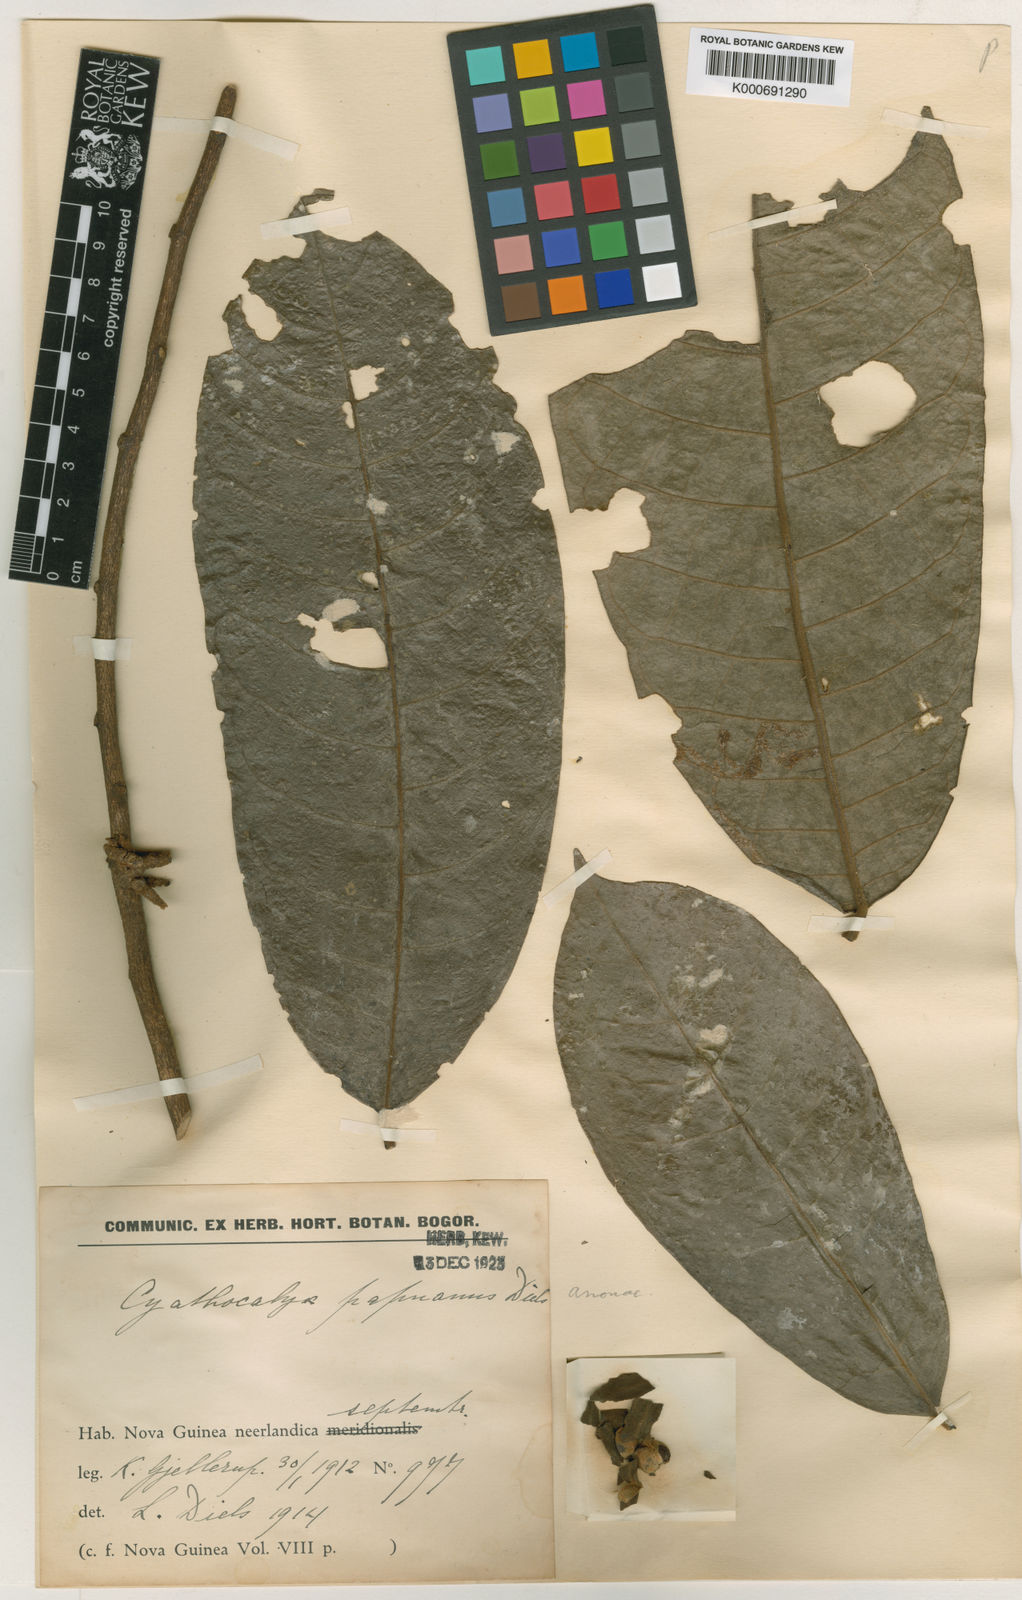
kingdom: Plantae
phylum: Tracheophyta
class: Magnoliopsida
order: Magnoliales
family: Annonaceae
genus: Drepananthus
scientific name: Drepananthus cauliflorus
